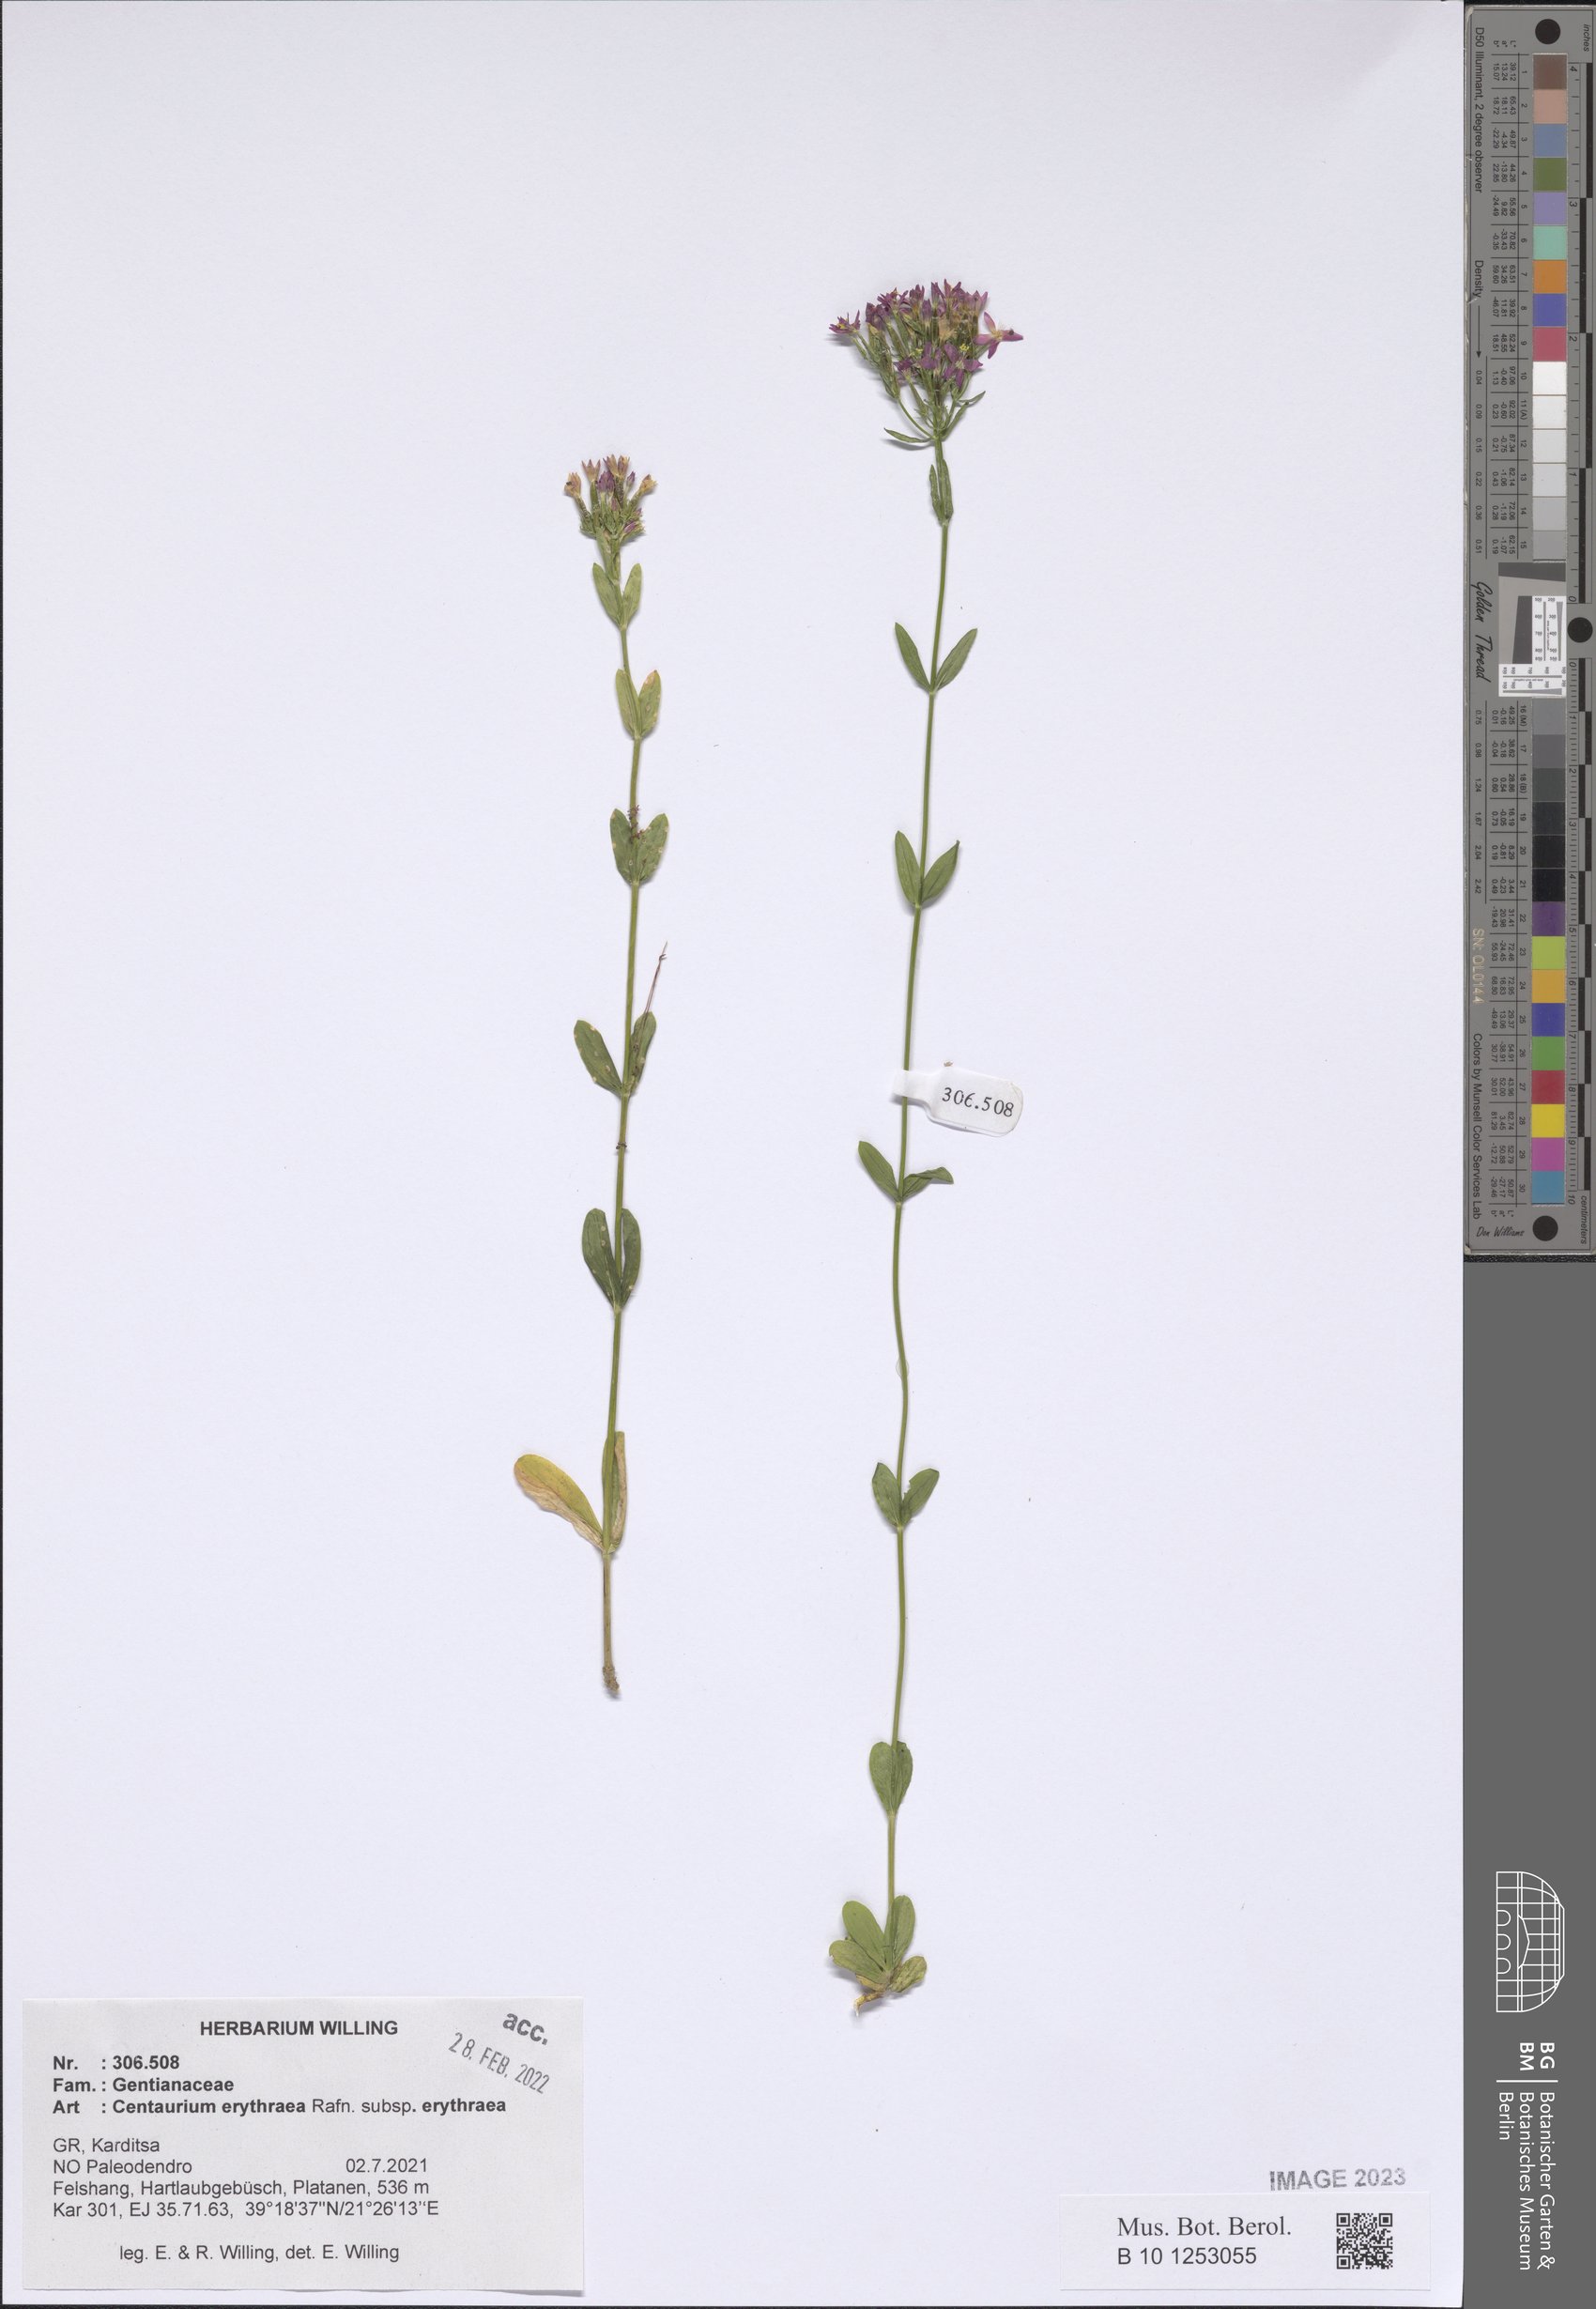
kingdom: Plantae
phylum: Tracheophyta
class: Magnoliopsida
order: Gentianales
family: Gentianaceae
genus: Centaurium
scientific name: Centaurium erythraea
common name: Common centaury
